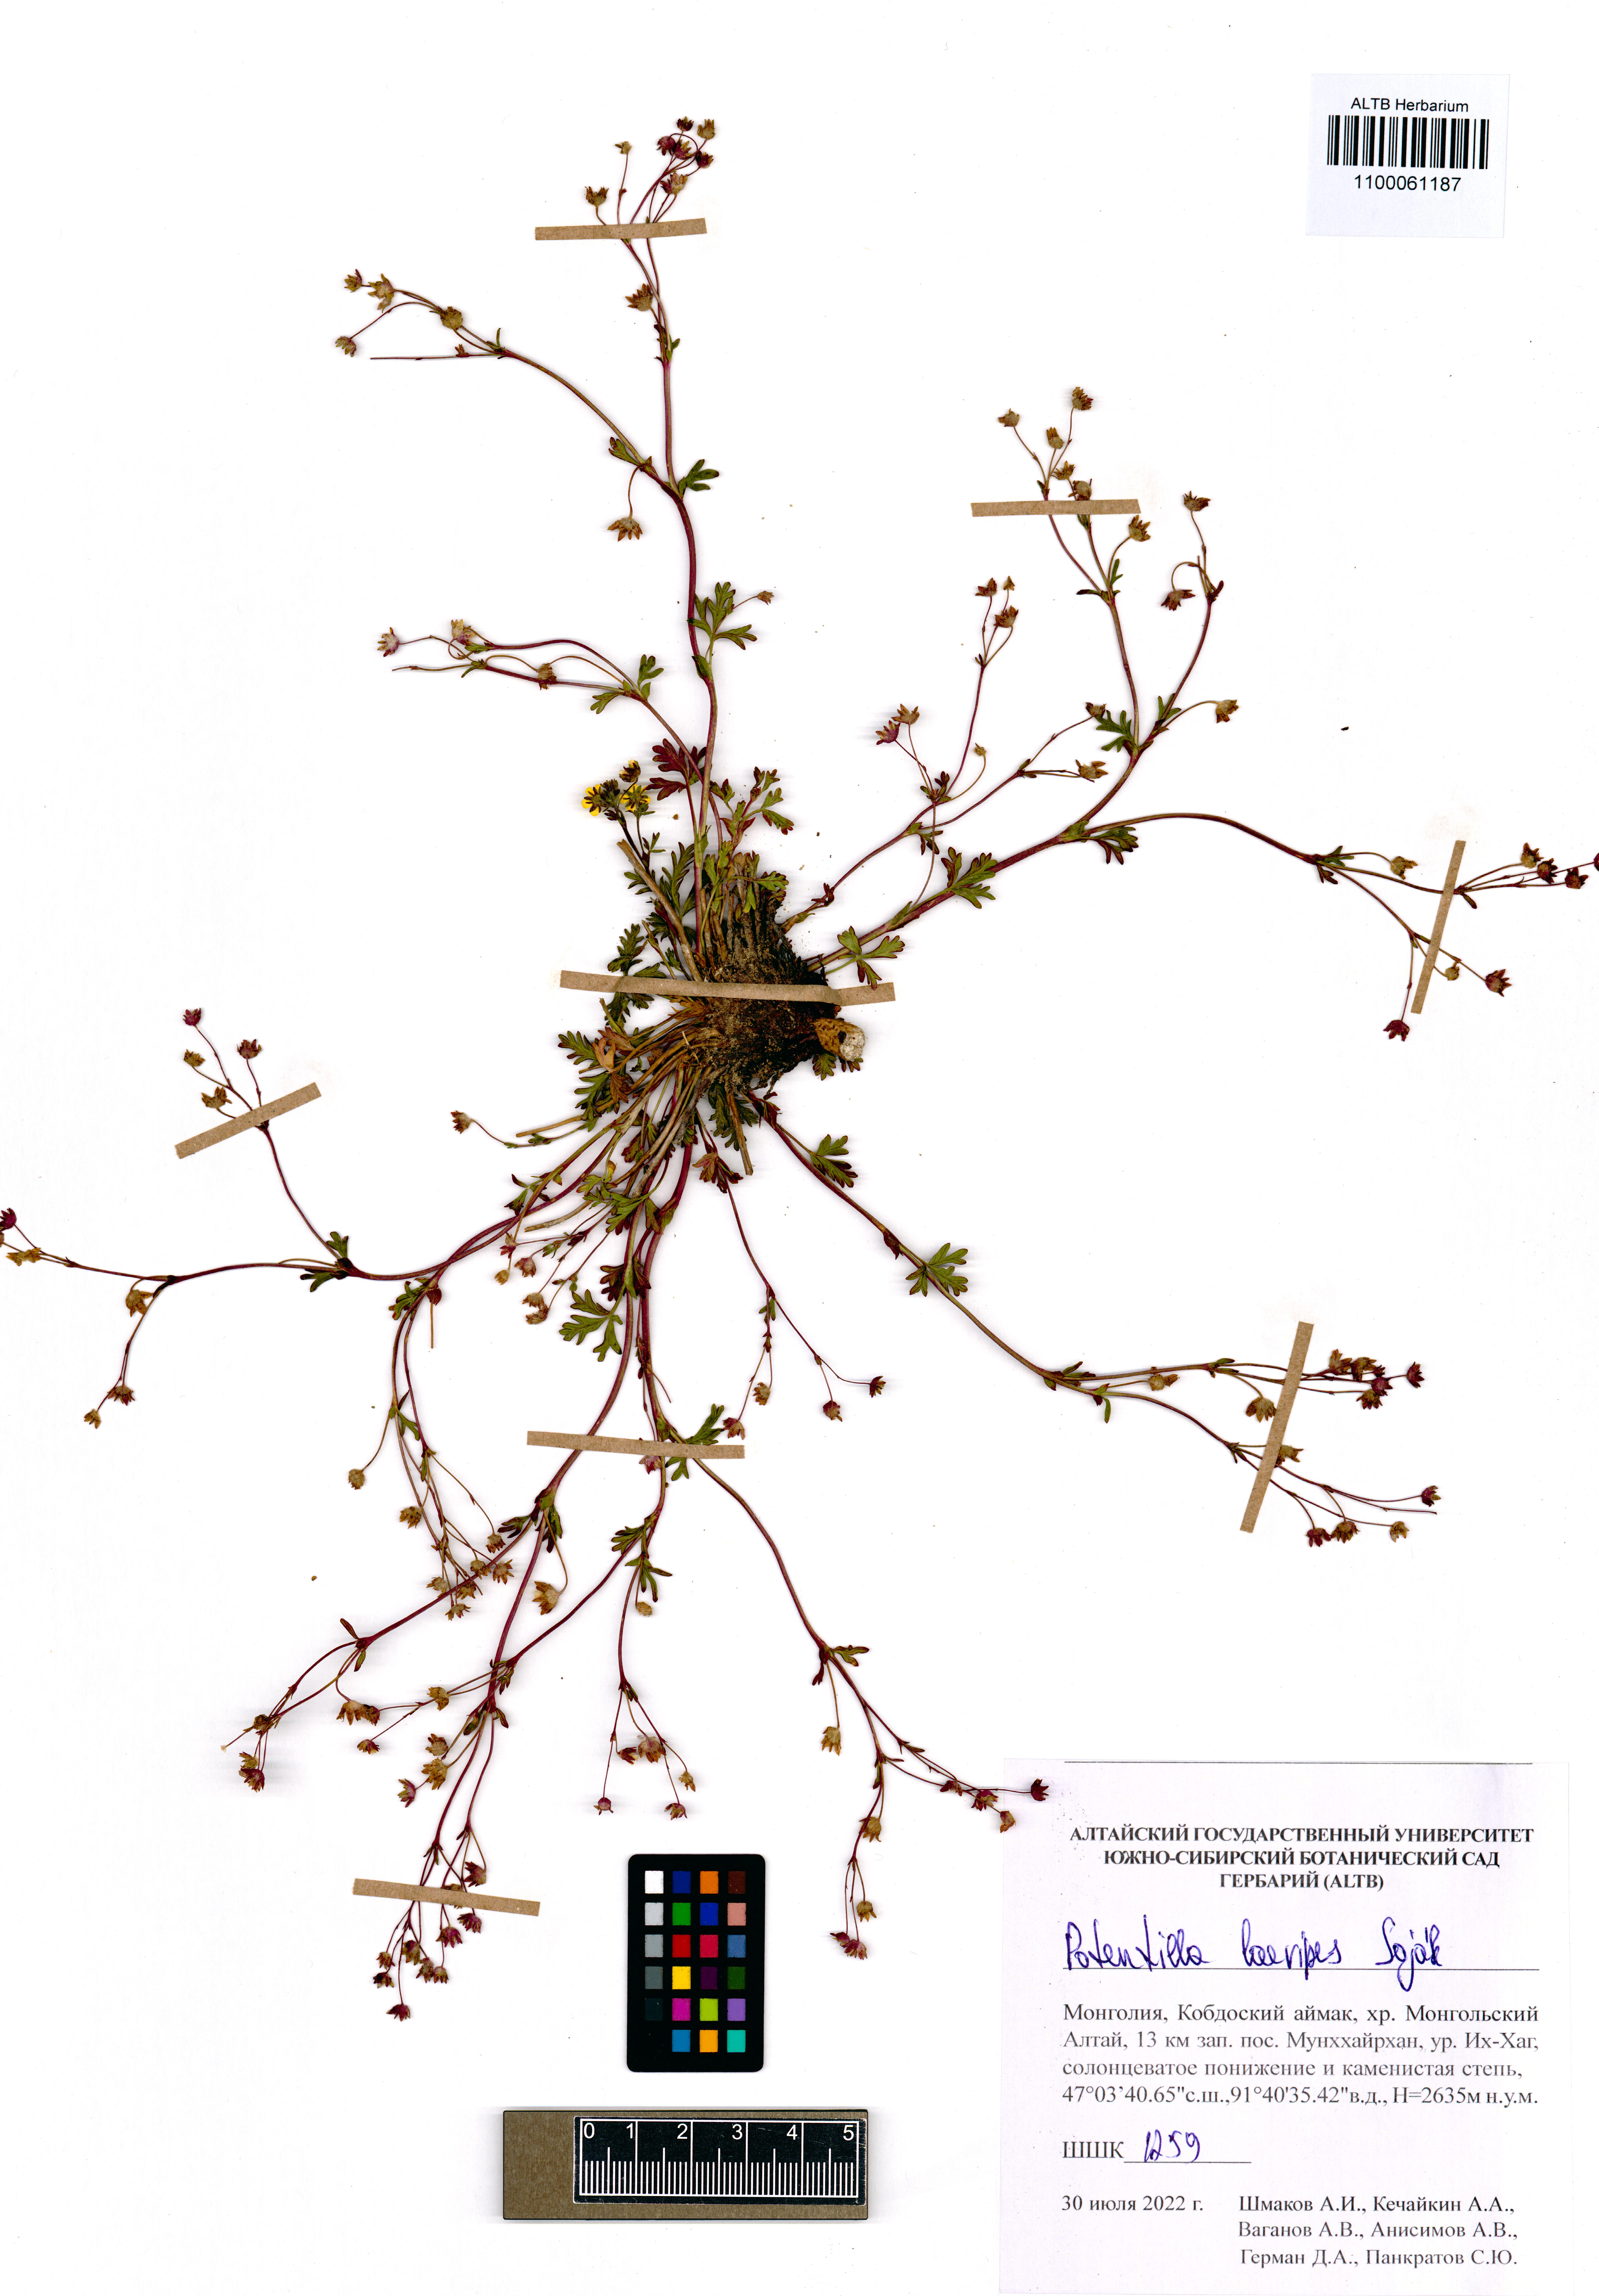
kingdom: Plantae
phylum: Tracheophyta
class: Magnoliopsida
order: Rosales
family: Rosaceae
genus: Potentilla
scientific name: Potentilla laevipes
